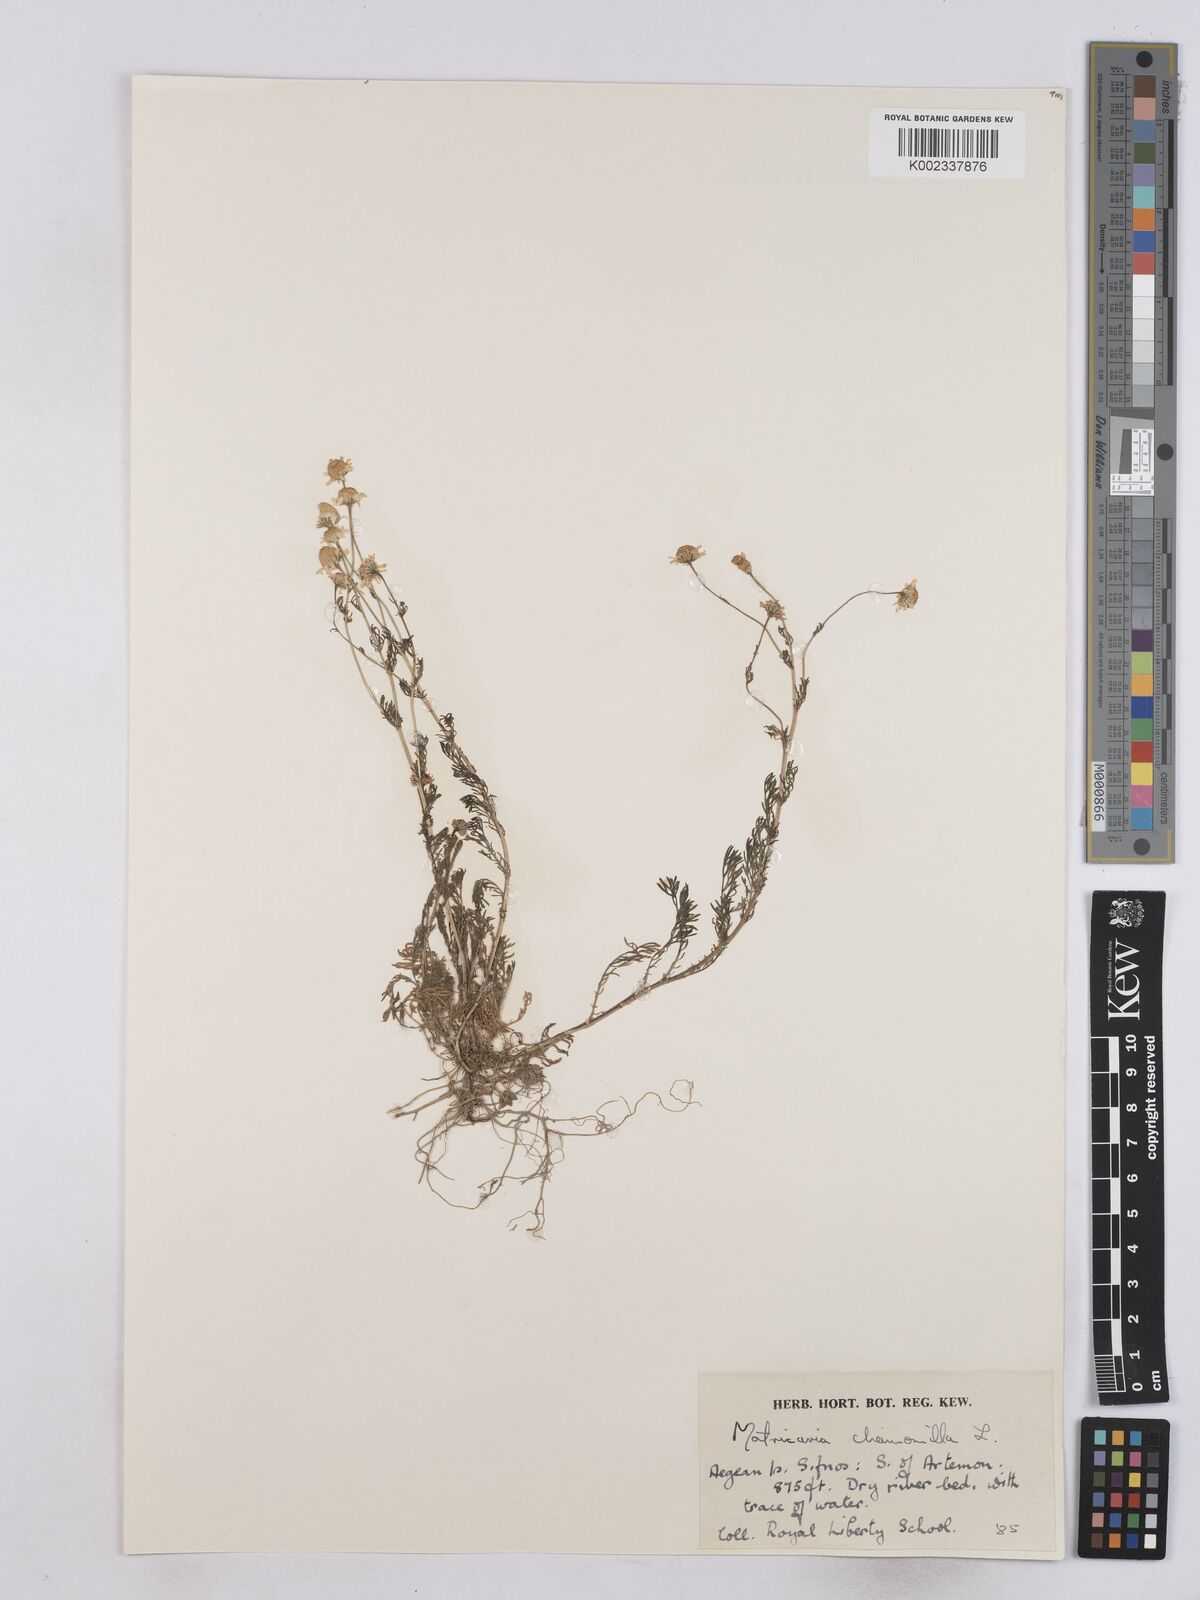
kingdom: Plantae
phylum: Tracheophyta
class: Magnoliopsida
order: Asterales
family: Asteraceae
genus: Matricaria
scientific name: Matricaria chamomilla
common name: Scented mayweed
